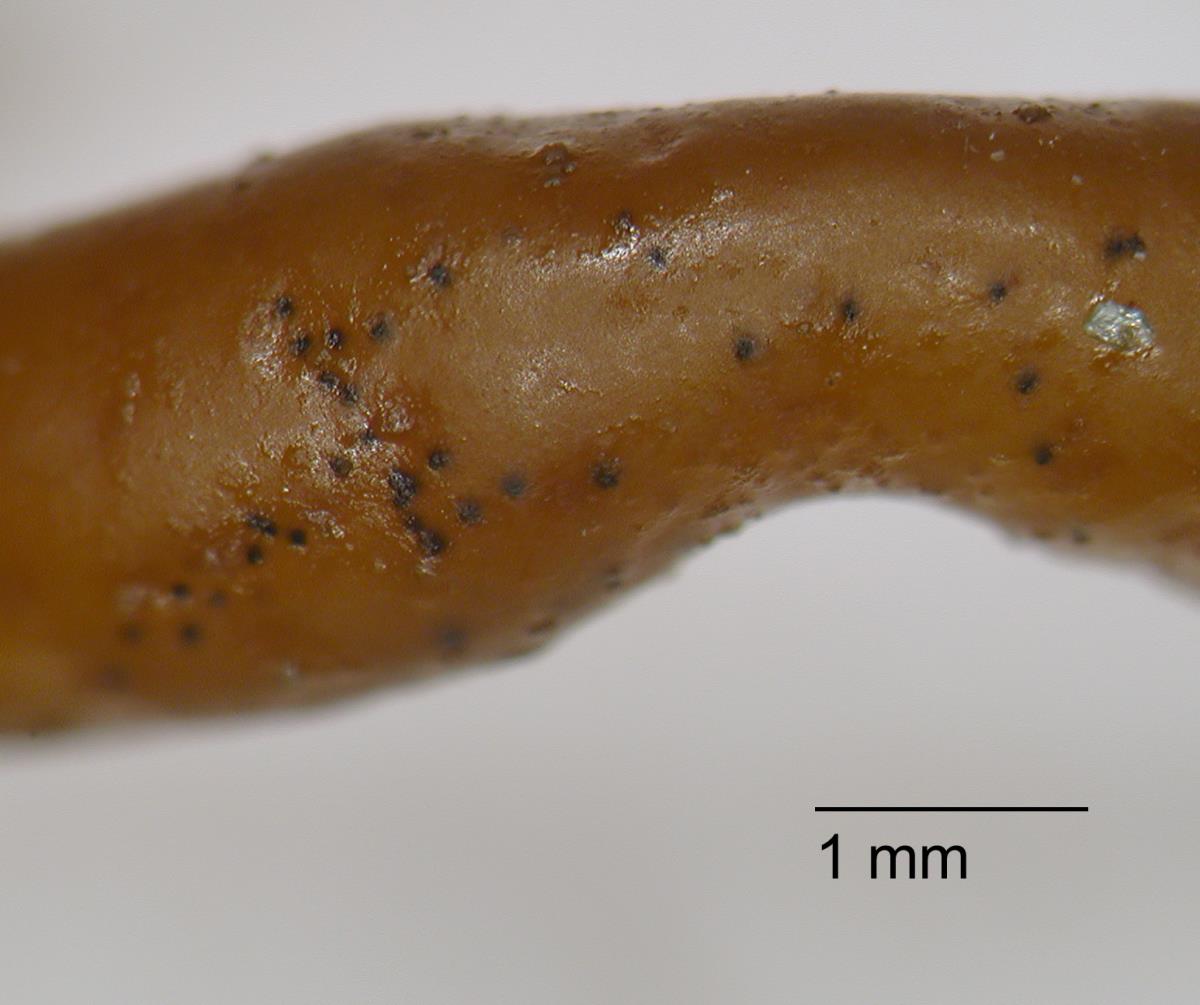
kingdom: Fungi
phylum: Ascomycota
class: Dothideomycetes
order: Mycosphaerellales
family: Mycosphaerellaceae
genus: Stigmidium
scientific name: Stigmidium apophlaeae
